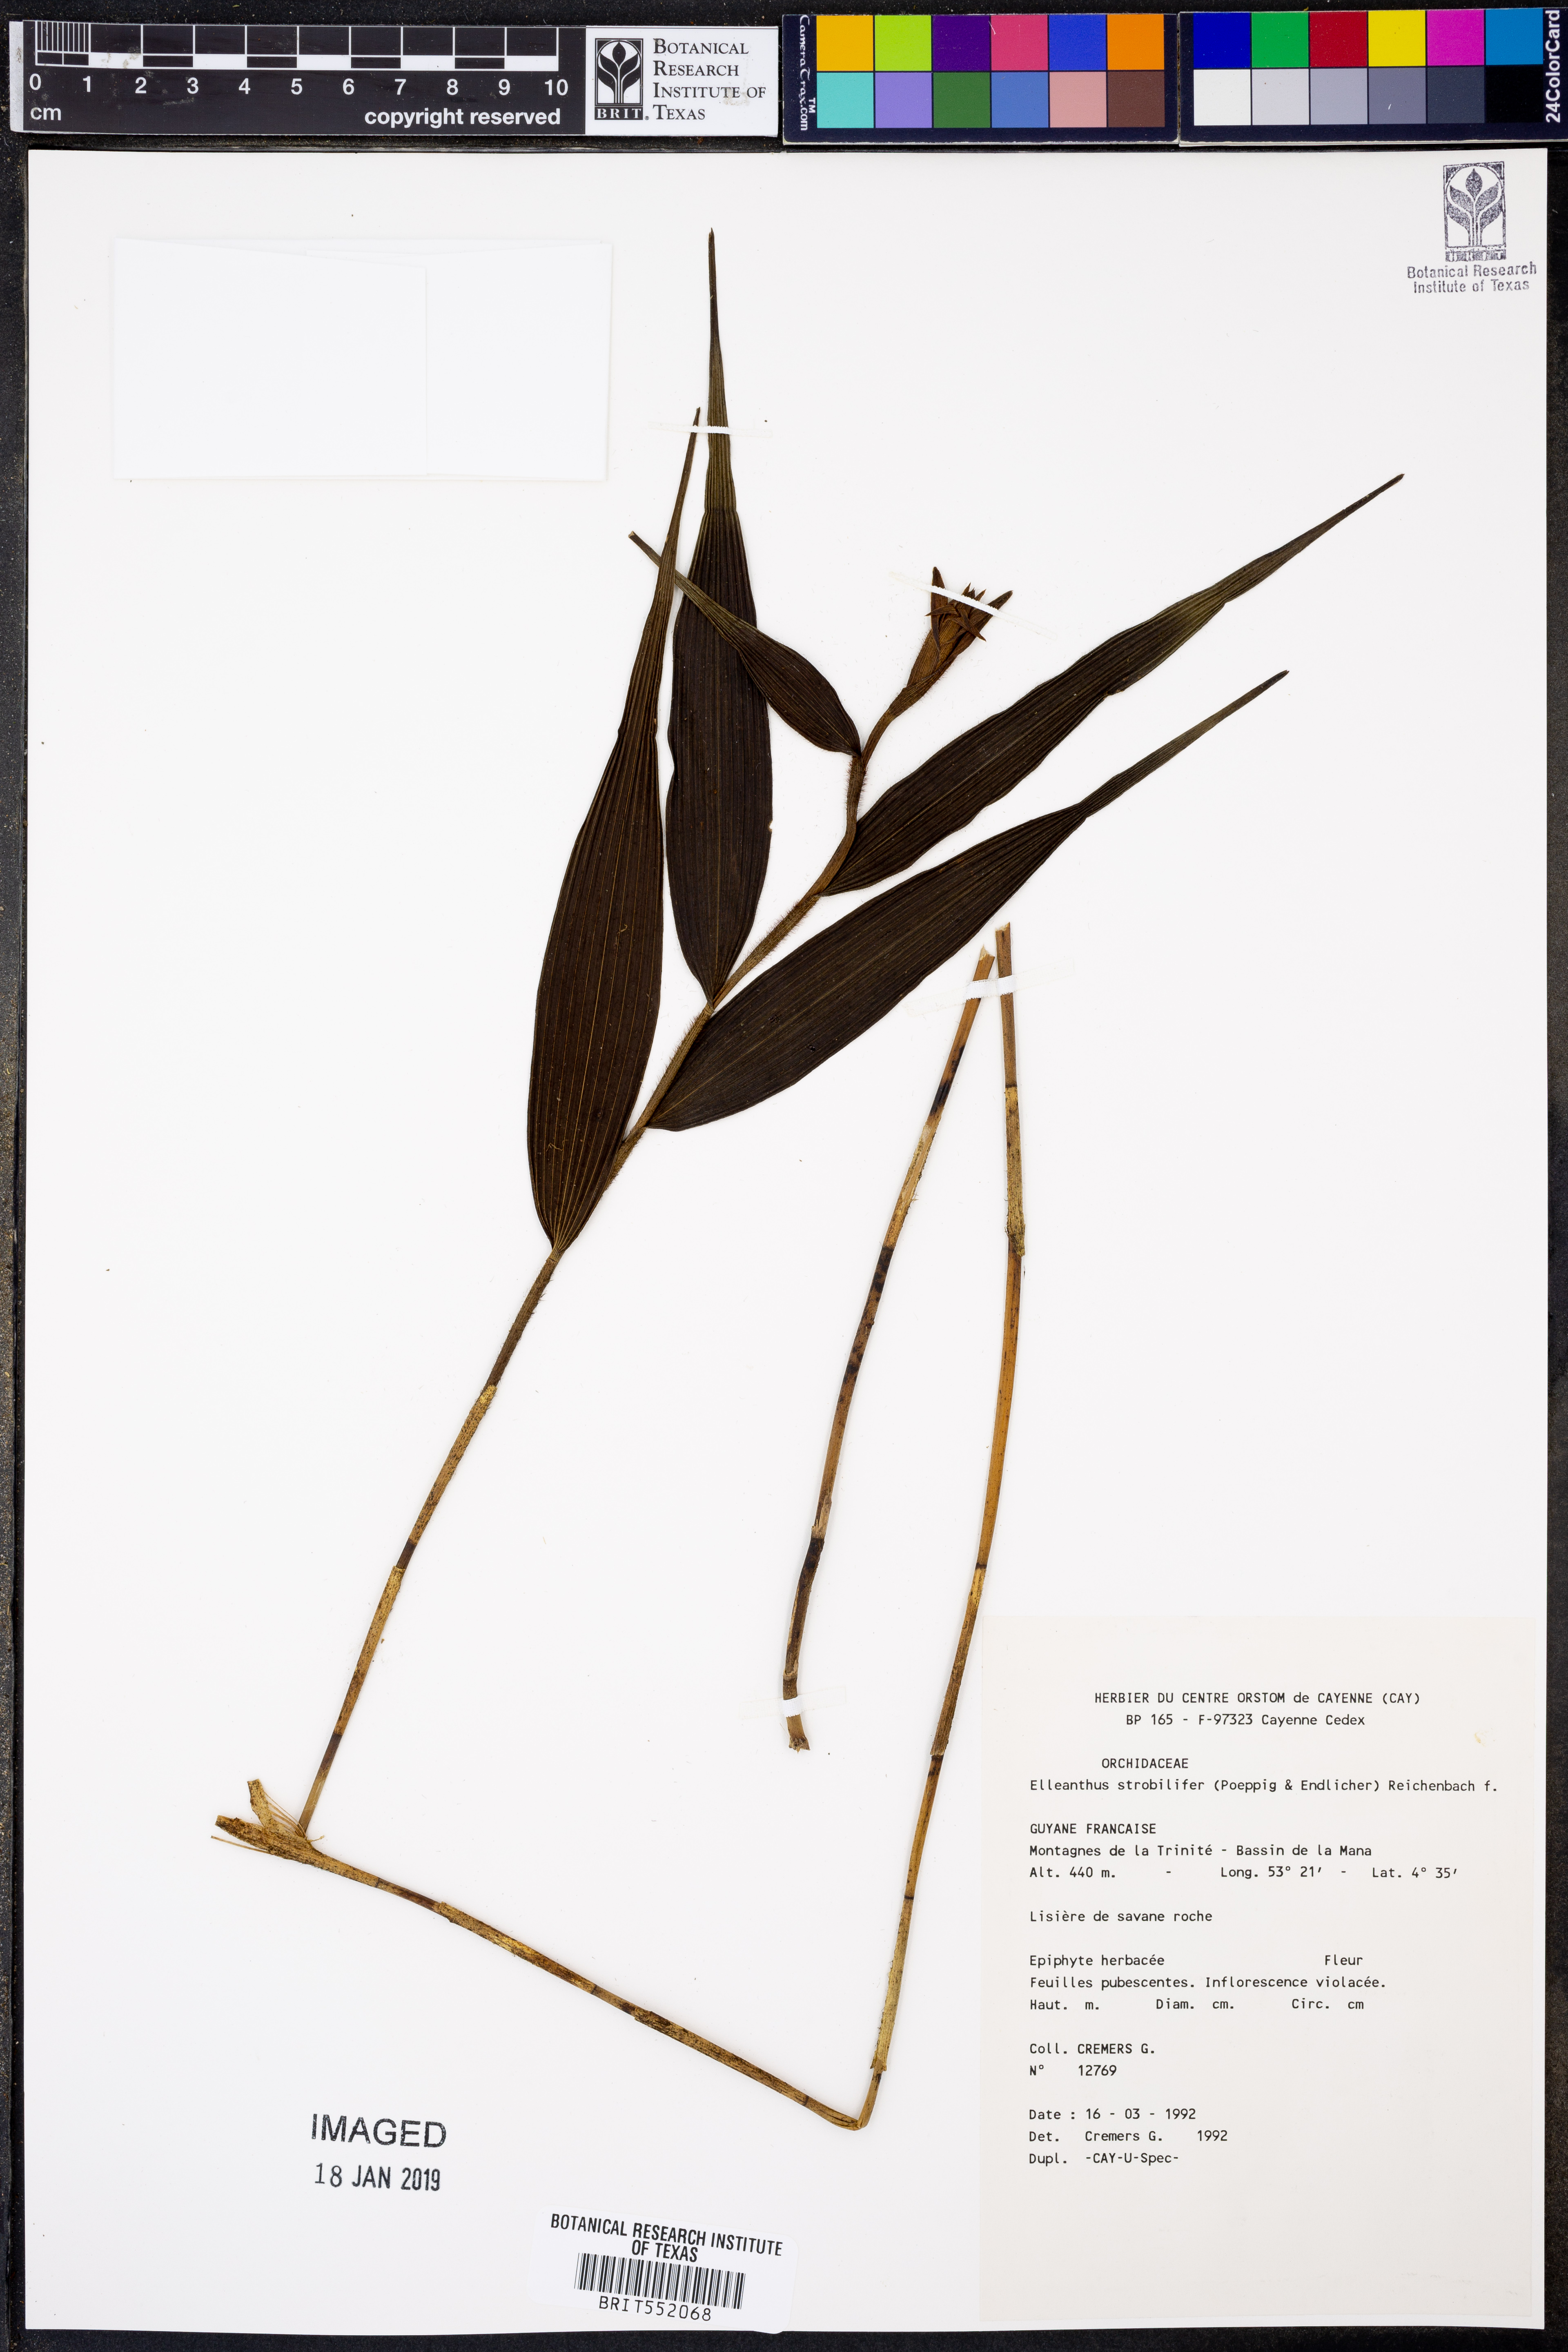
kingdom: Plantae
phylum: Tracheophyta
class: Liliopsida
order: Asparagales
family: Orchidaceae
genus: Elleanthus
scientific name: Elleanthus strobilifer
